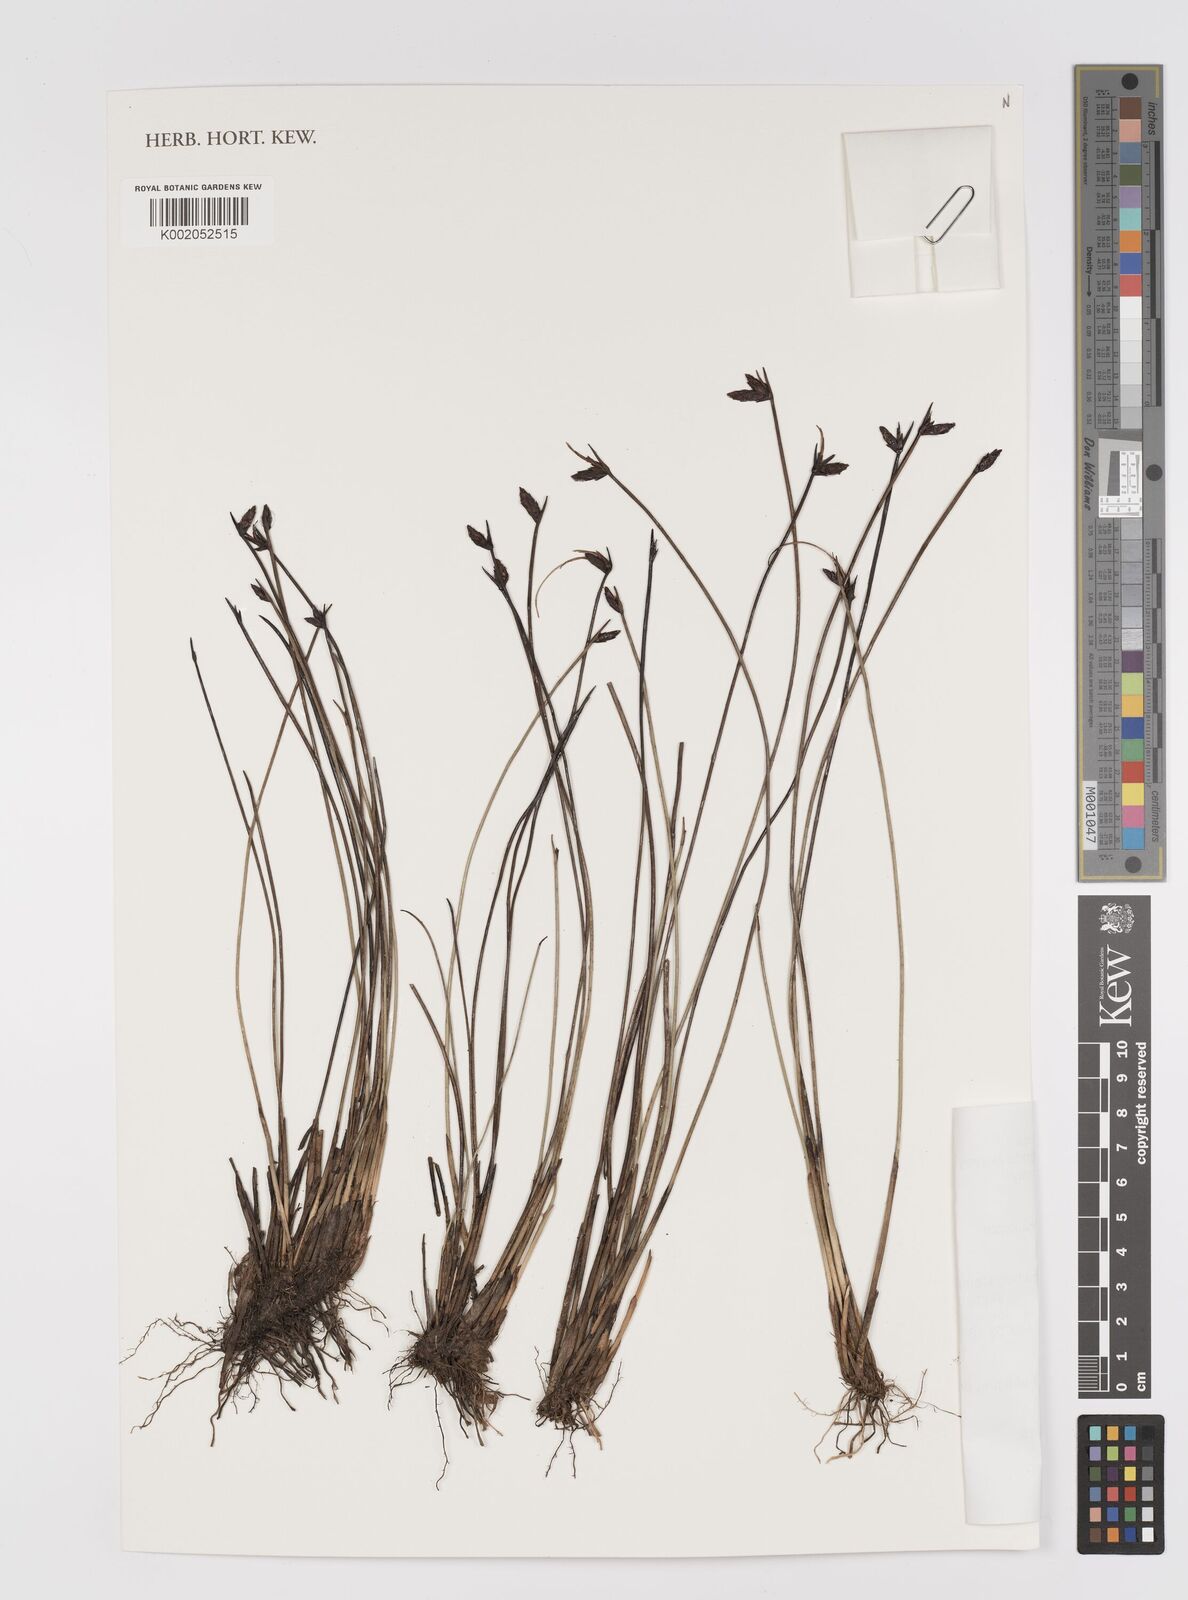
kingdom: Plantae
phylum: Tracheophyta
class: Liliopsida
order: Poales
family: Cyperaceae
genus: Schoenoplectiella
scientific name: Schoenoplectiella mucronata
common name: Bog bulrush
